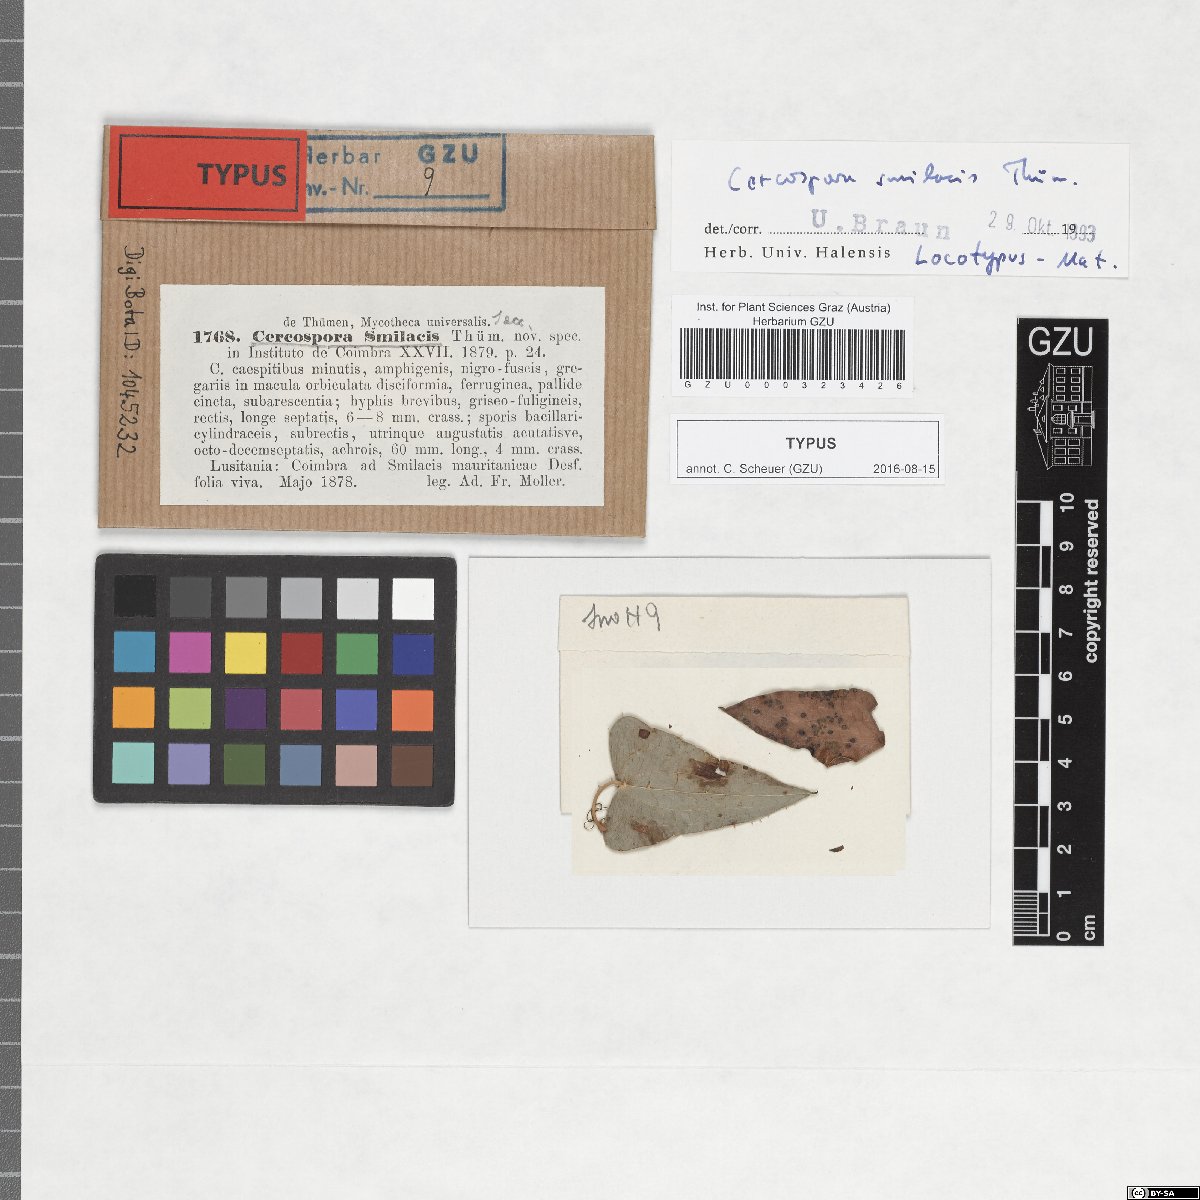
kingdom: Fungi
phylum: Ascomycota
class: Dothideomycetes
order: Mycosphaerellales
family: Mycosphaerellaceae
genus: Neocercosporidium
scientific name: Neocercosporidium smilacis
